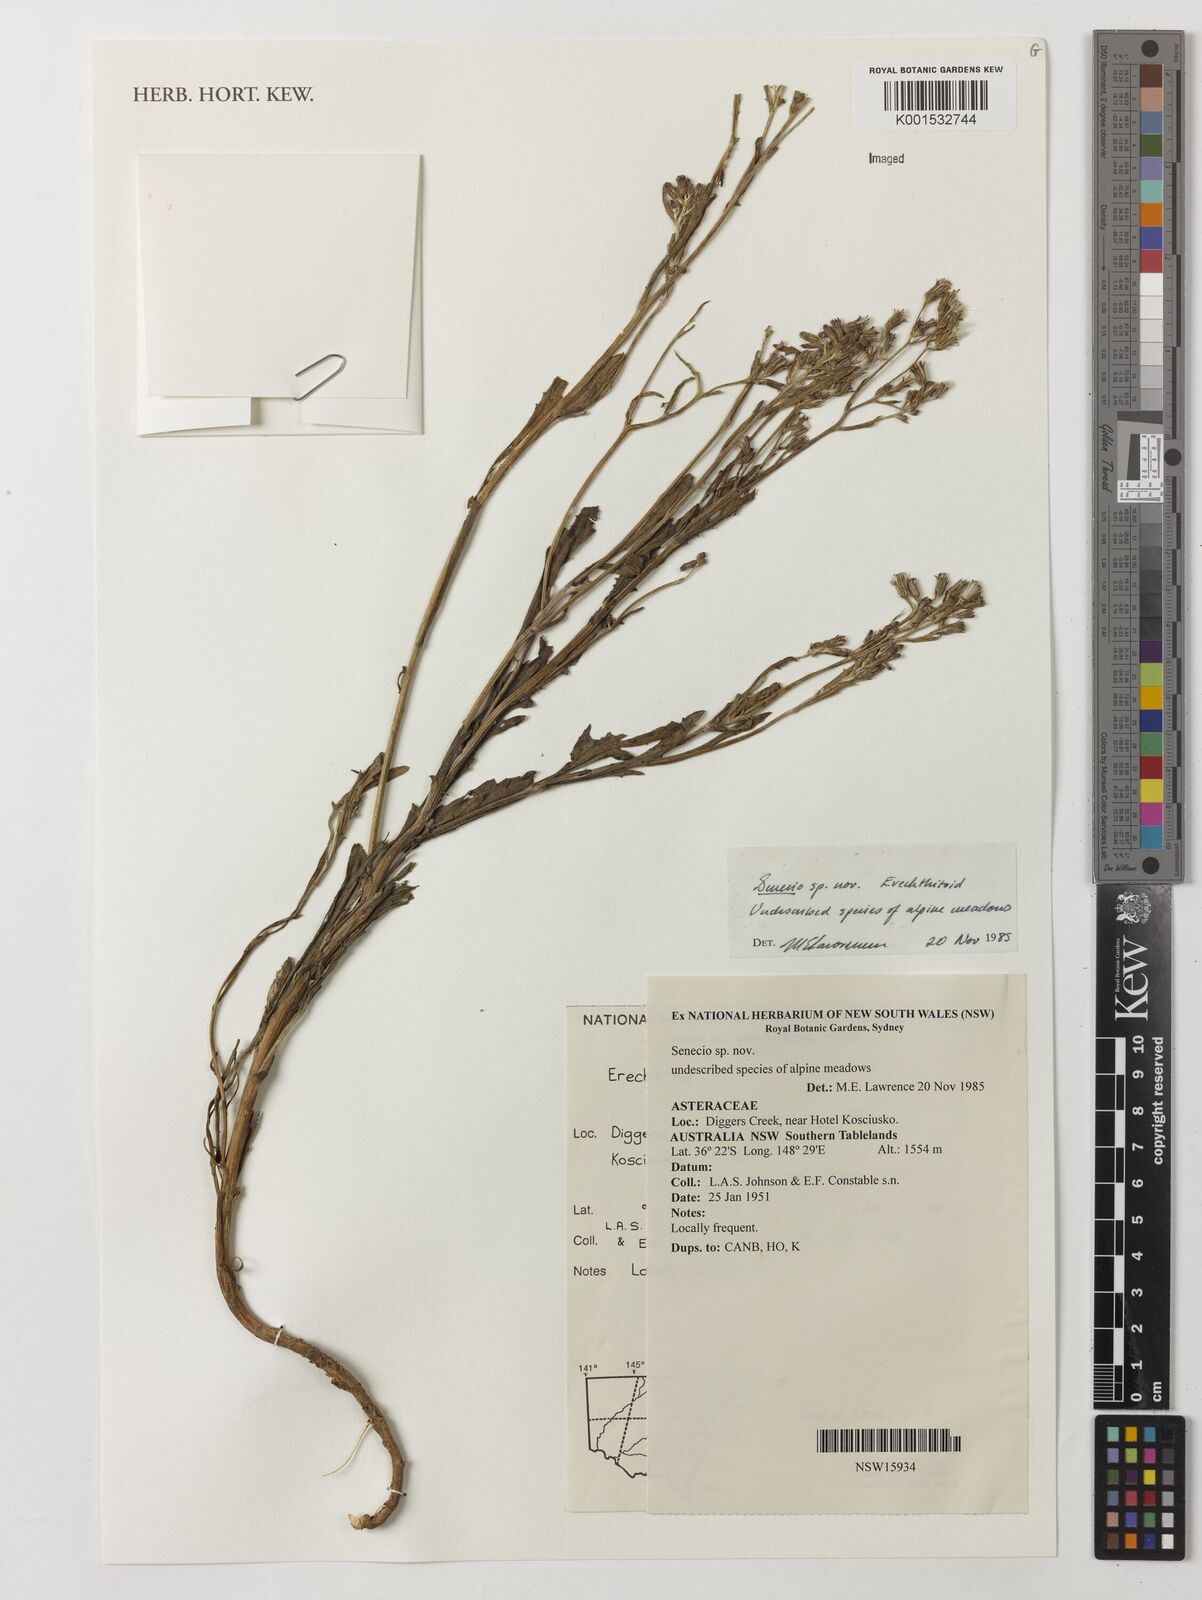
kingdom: Plantae
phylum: Tracheophyta
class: Magnoliopsida
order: Asterales
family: Asteraceae
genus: Senecio
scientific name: Senecio
